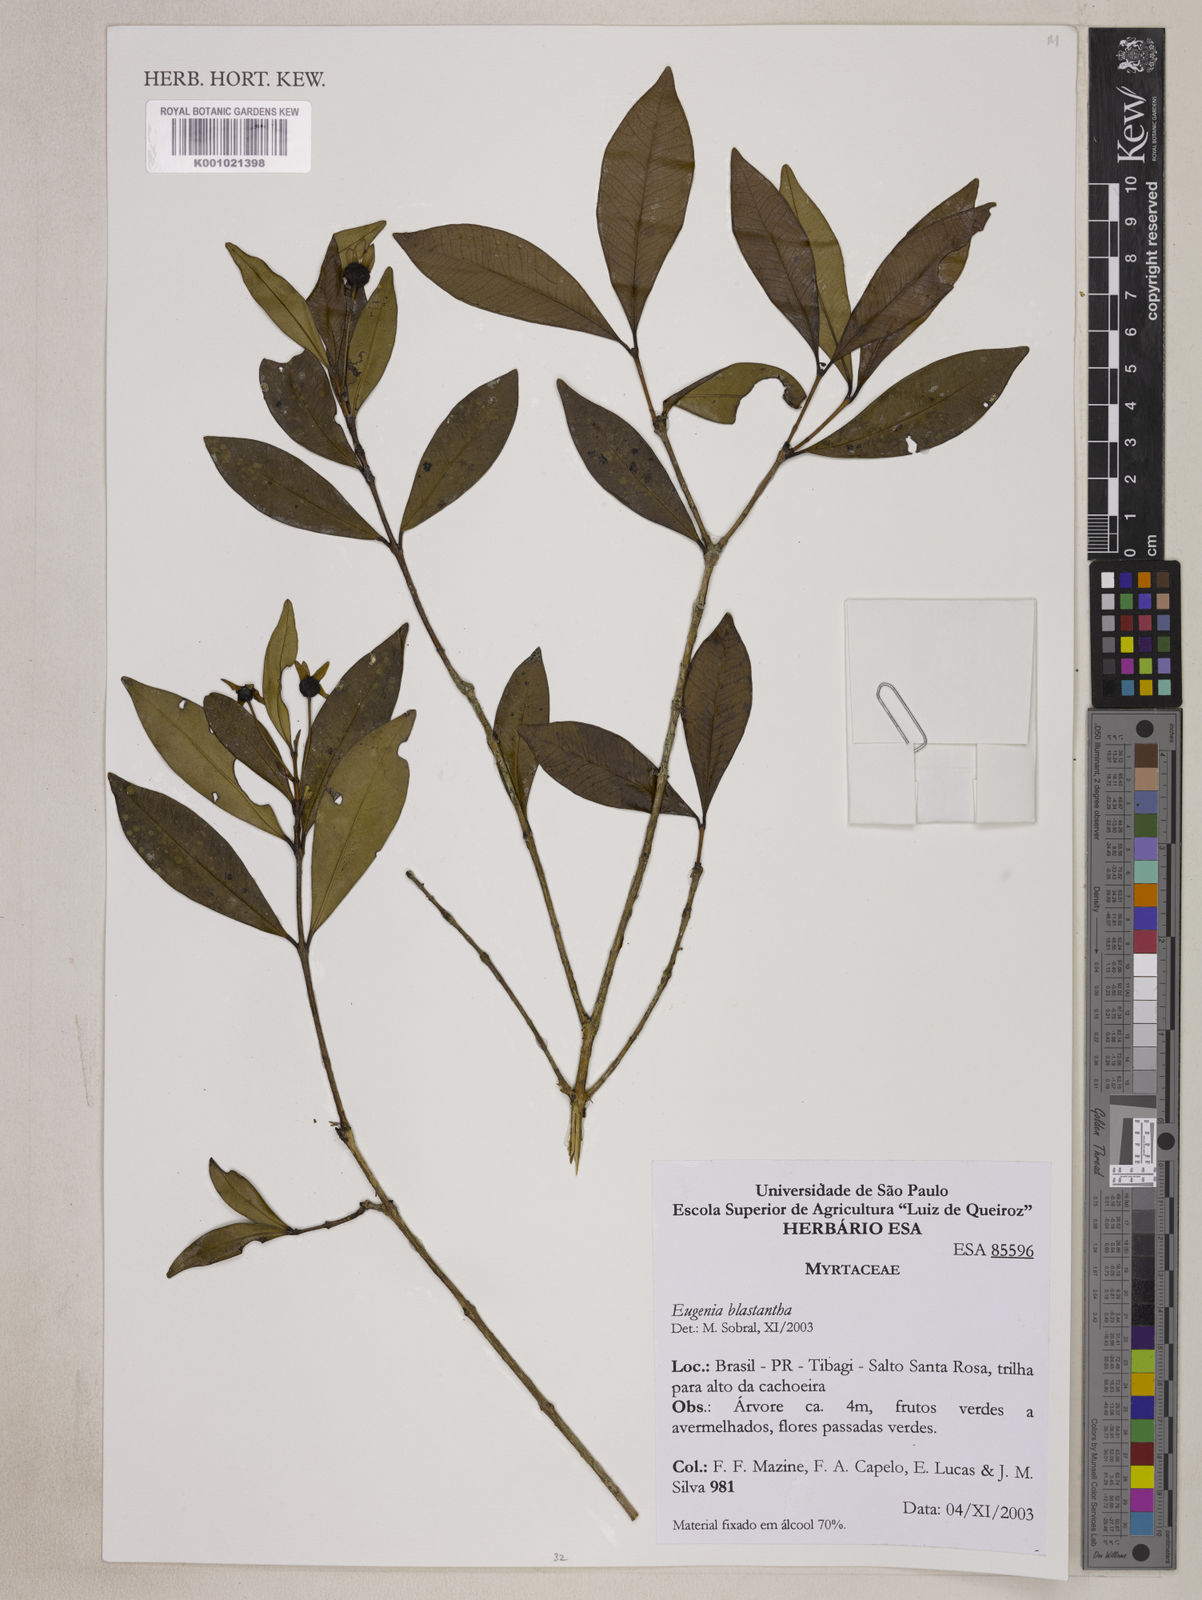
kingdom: Plantae
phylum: Tracheophyta
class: Magnoliopsida
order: Myrtales
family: Myrtaceae
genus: Eugenia
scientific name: Eugenia blastantha
